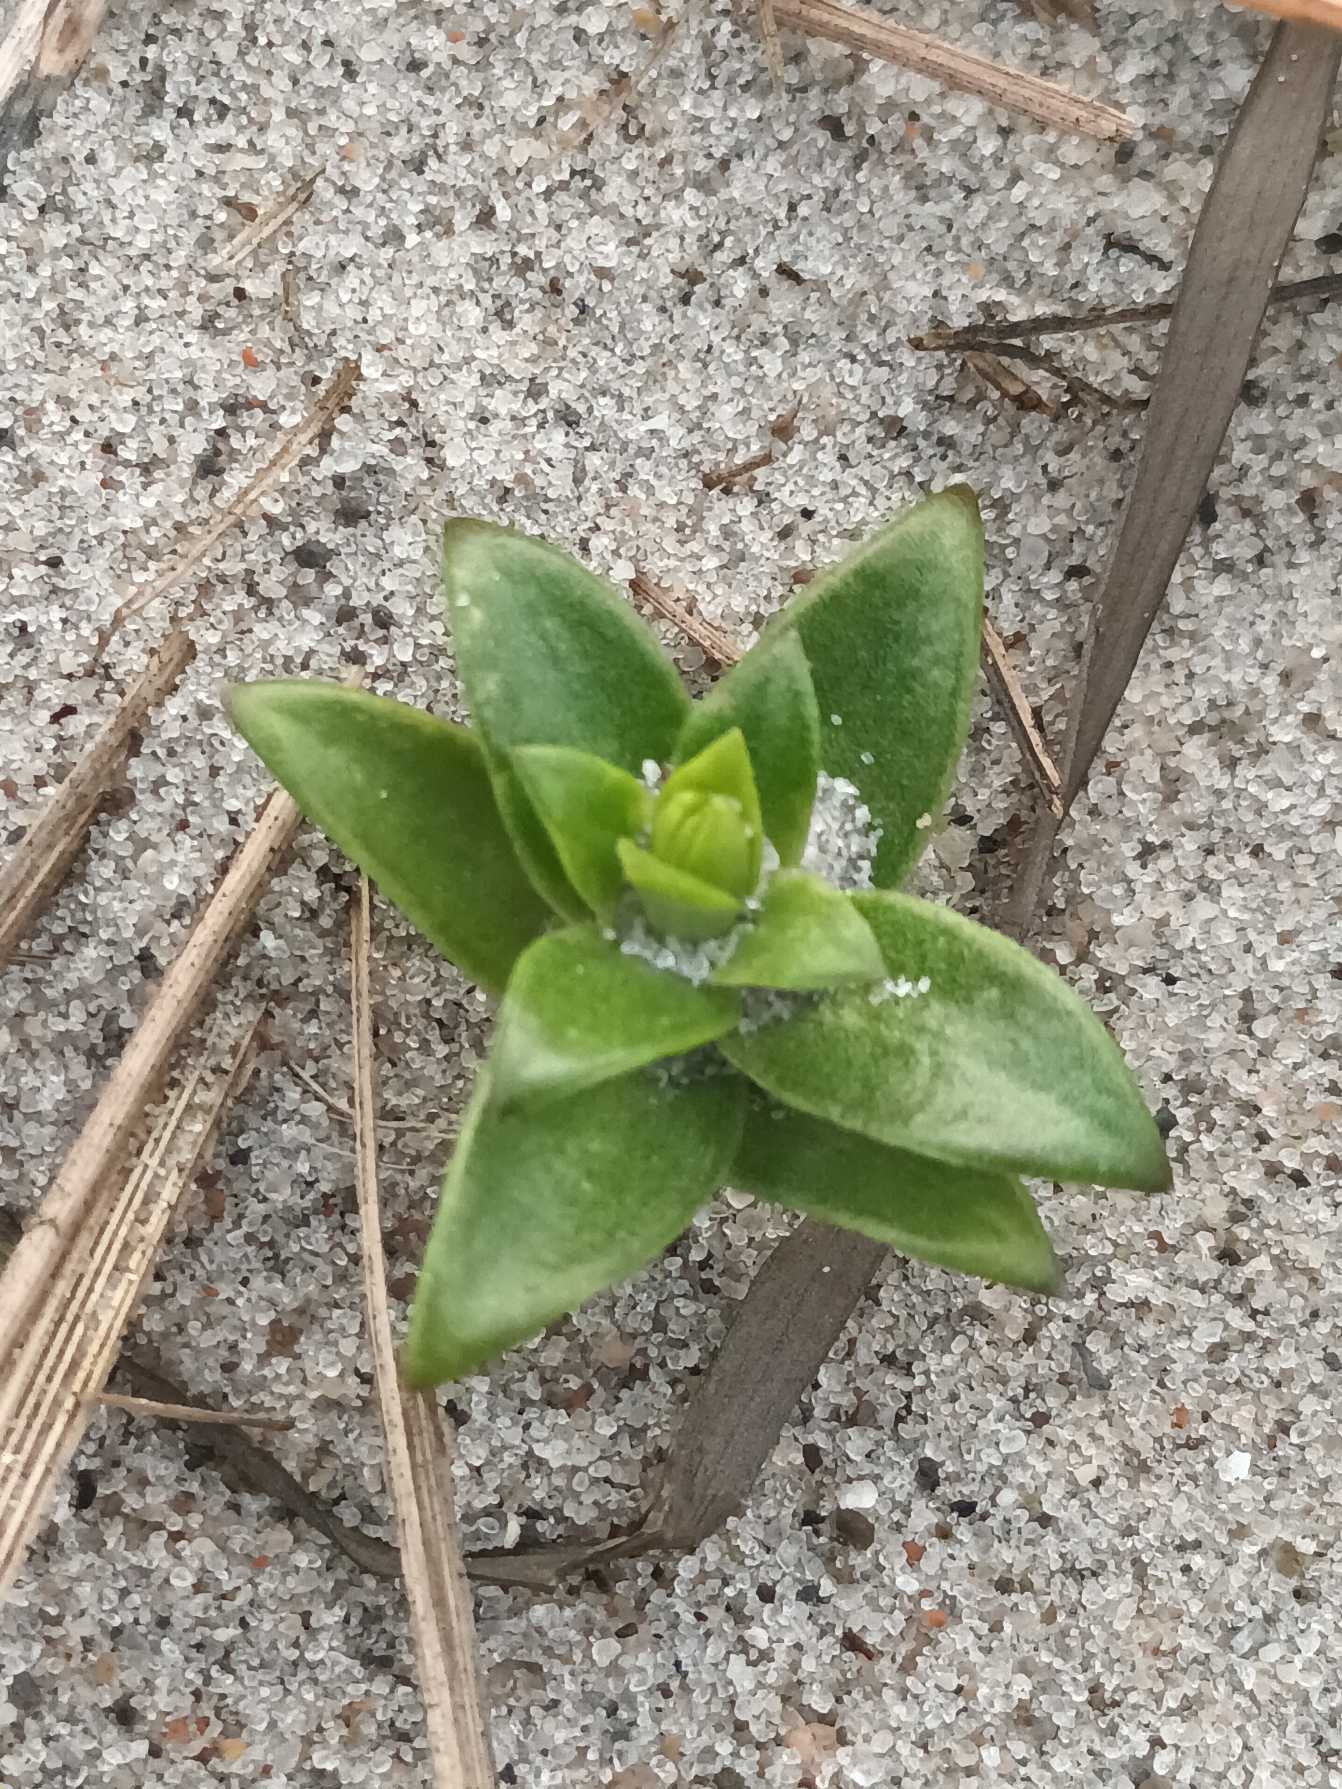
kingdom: Plantae
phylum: Tracheophyta
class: Magnoliopsida
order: Caryophyllales
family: Caryophyllaceae
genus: Honckenya
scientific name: Honckenya peploides
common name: Strandarve
